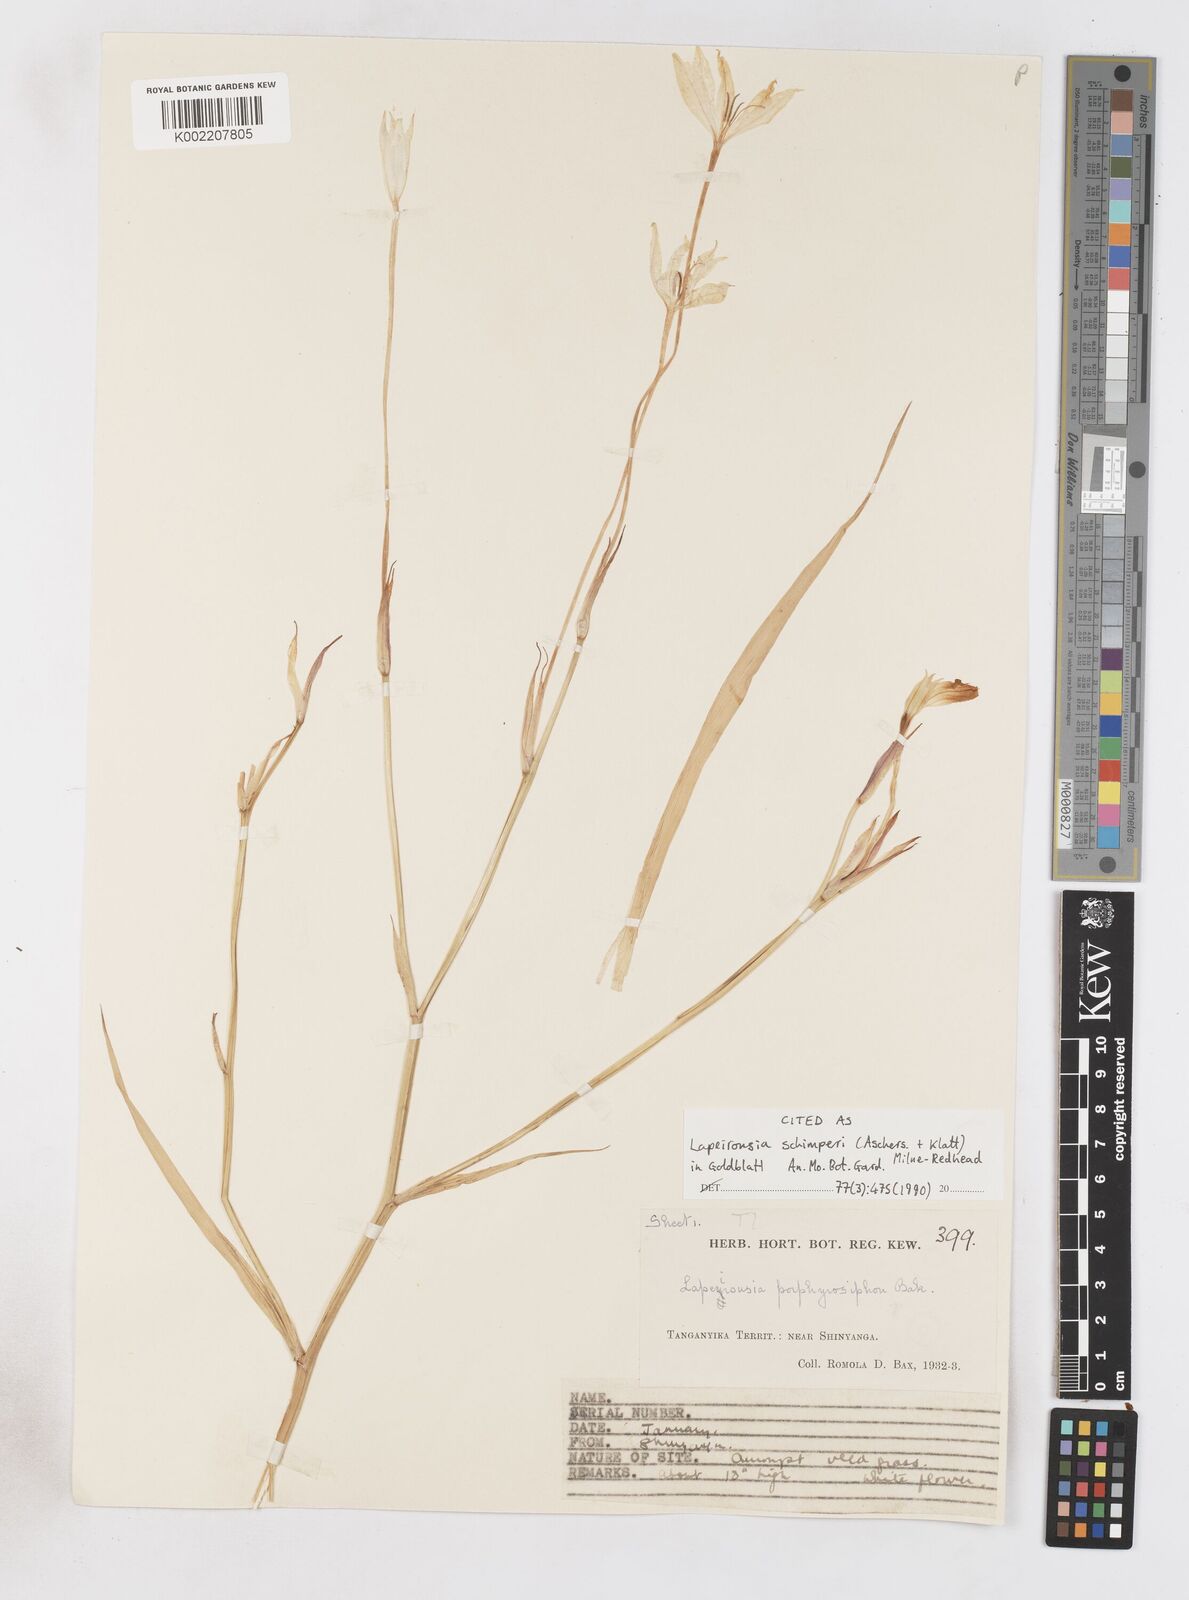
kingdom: Plantae
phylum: Tracheophyta
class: Liliopsida
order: Asparagales
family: Iridaceae
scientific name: Iridaceae
